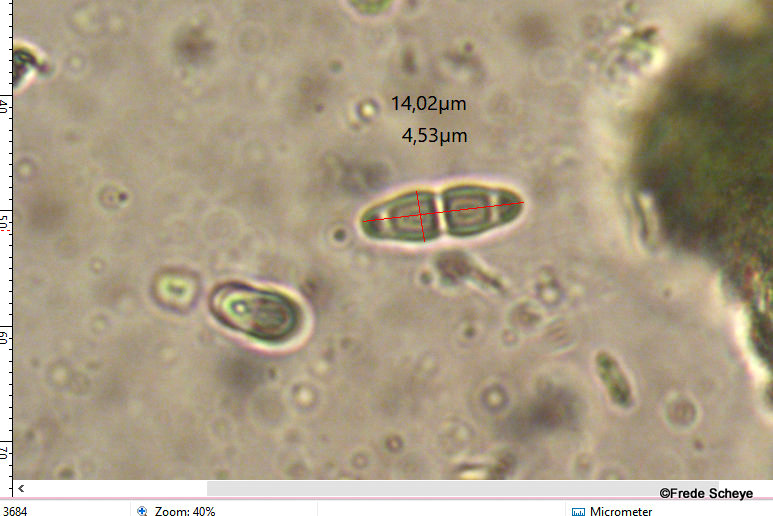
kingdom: Fungi
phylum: Ascomycota
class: Lecanoromycetes
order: Lecanorales
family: Byssolomataceae
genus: Fellhanera
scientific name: Fellhanera subtilis
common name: nåle-tallerkenlav
